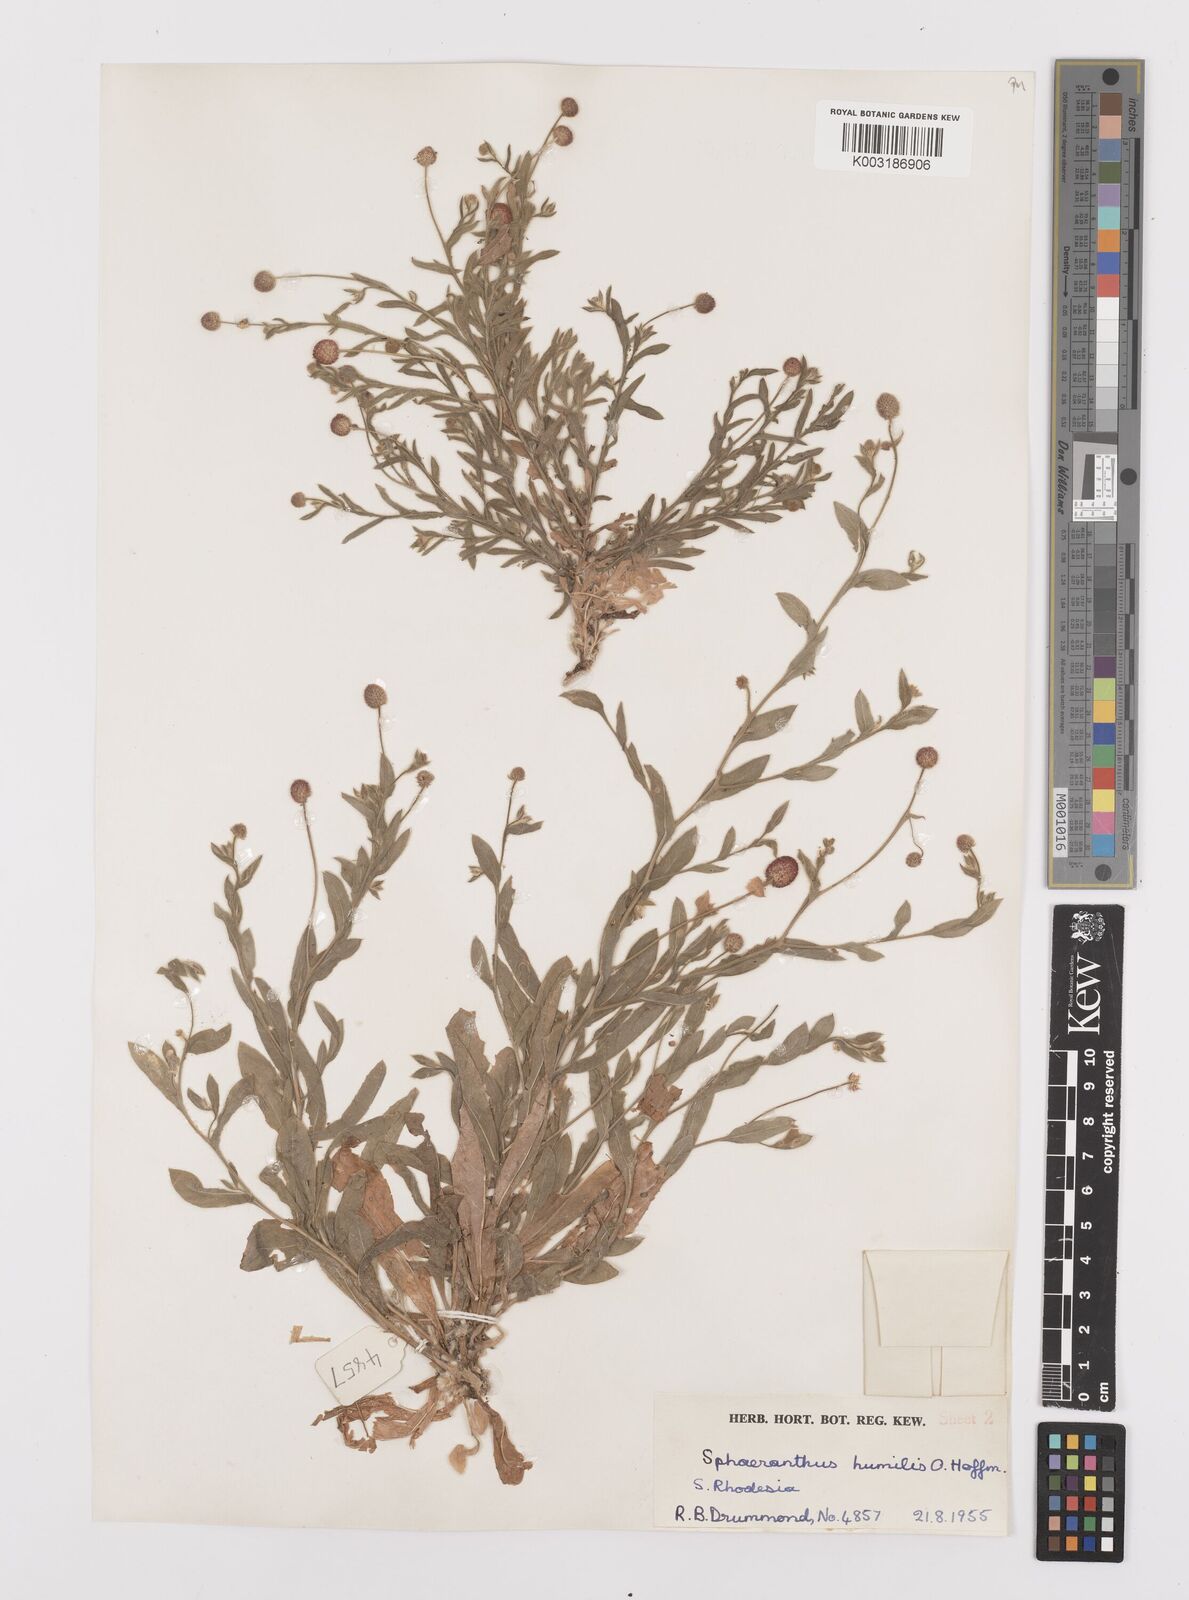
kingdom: Plantae
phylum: Tracheophyta
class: Magnoliopsida
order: Asterales
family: Asteraceae
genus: Sphaeranthus
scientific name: Sphaeranthus flexuosus
